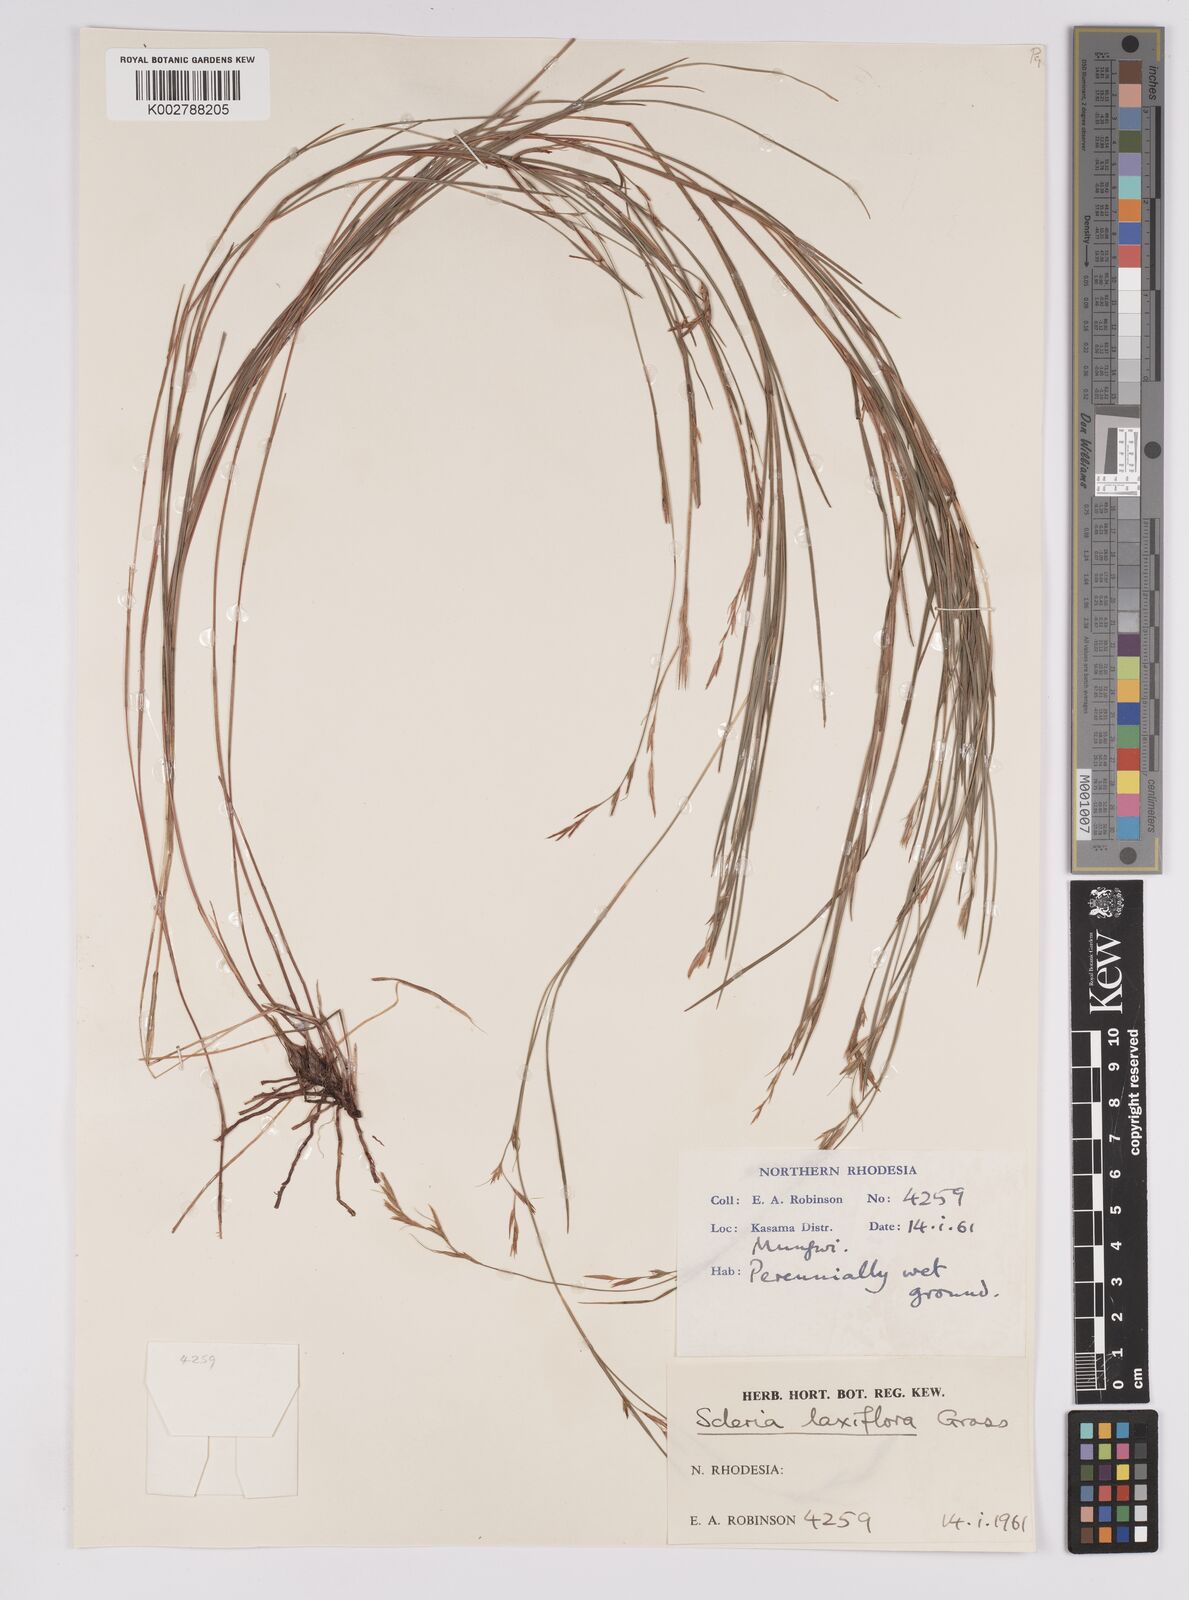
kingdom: Plantae
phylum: Tracheophyta
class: Liliopsida
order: Poales
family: Cyperaceae
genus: Scleria
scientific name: Scleria laxiflora
